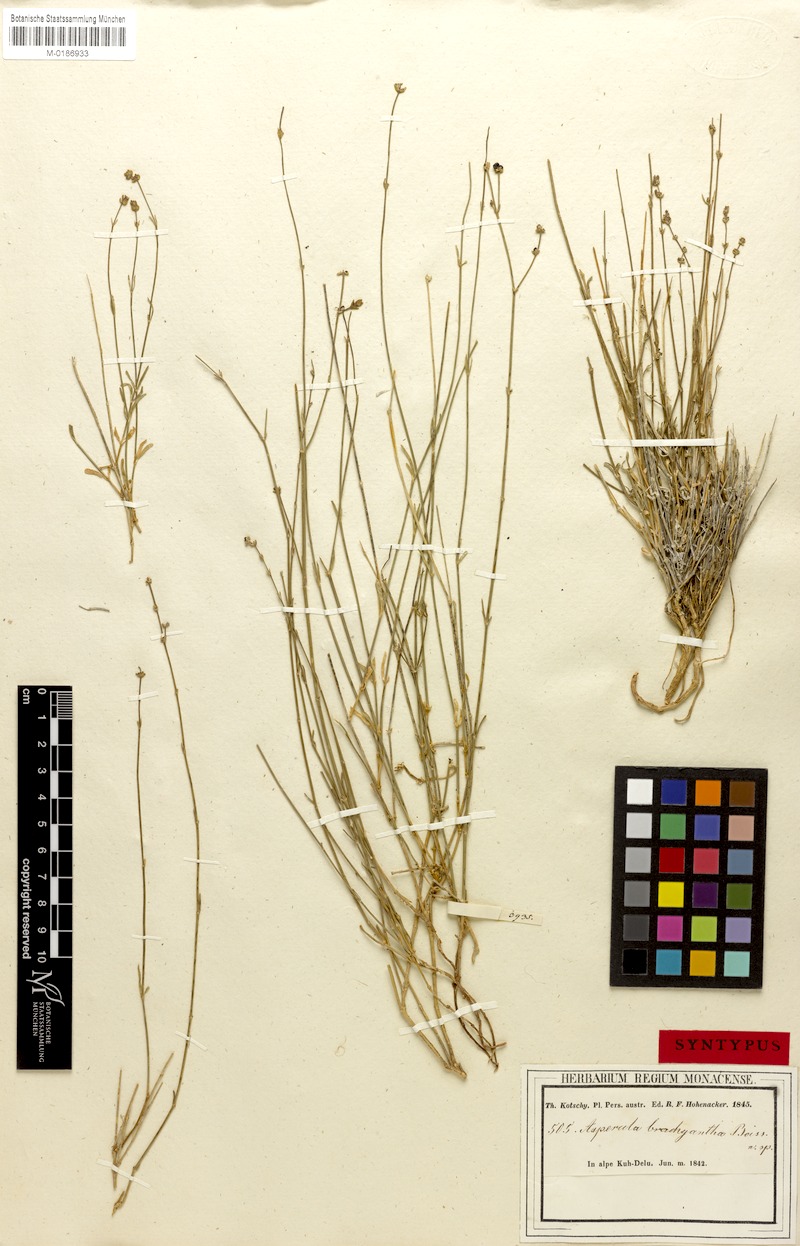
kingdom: Plantae
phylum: Tracheophyta
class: Magnoliopsida
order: Gentianales
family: Rubiaceae
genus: Asperula
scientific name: Asperula brachyantha
